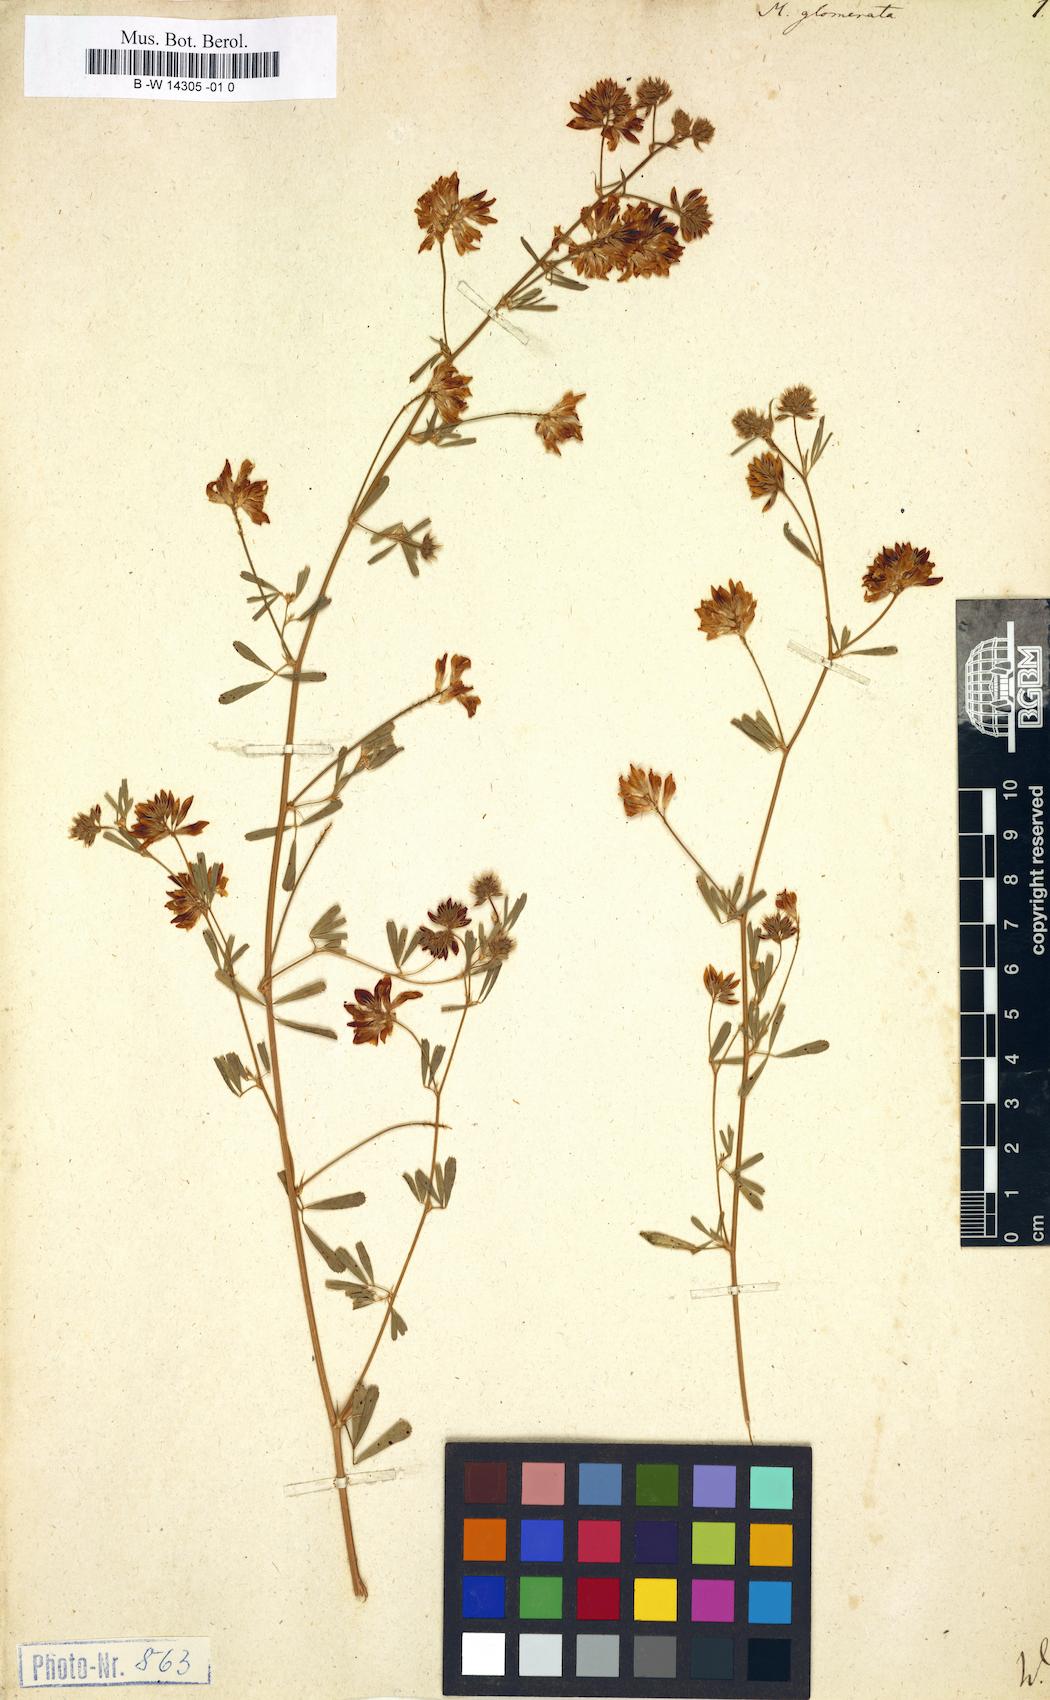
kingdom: Plantae
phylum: Tracheophyta
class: Magnoliopsida
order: Fabales
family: Fabaceae
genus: Medicago
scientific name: Medicago sativa
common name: Alfalfa
